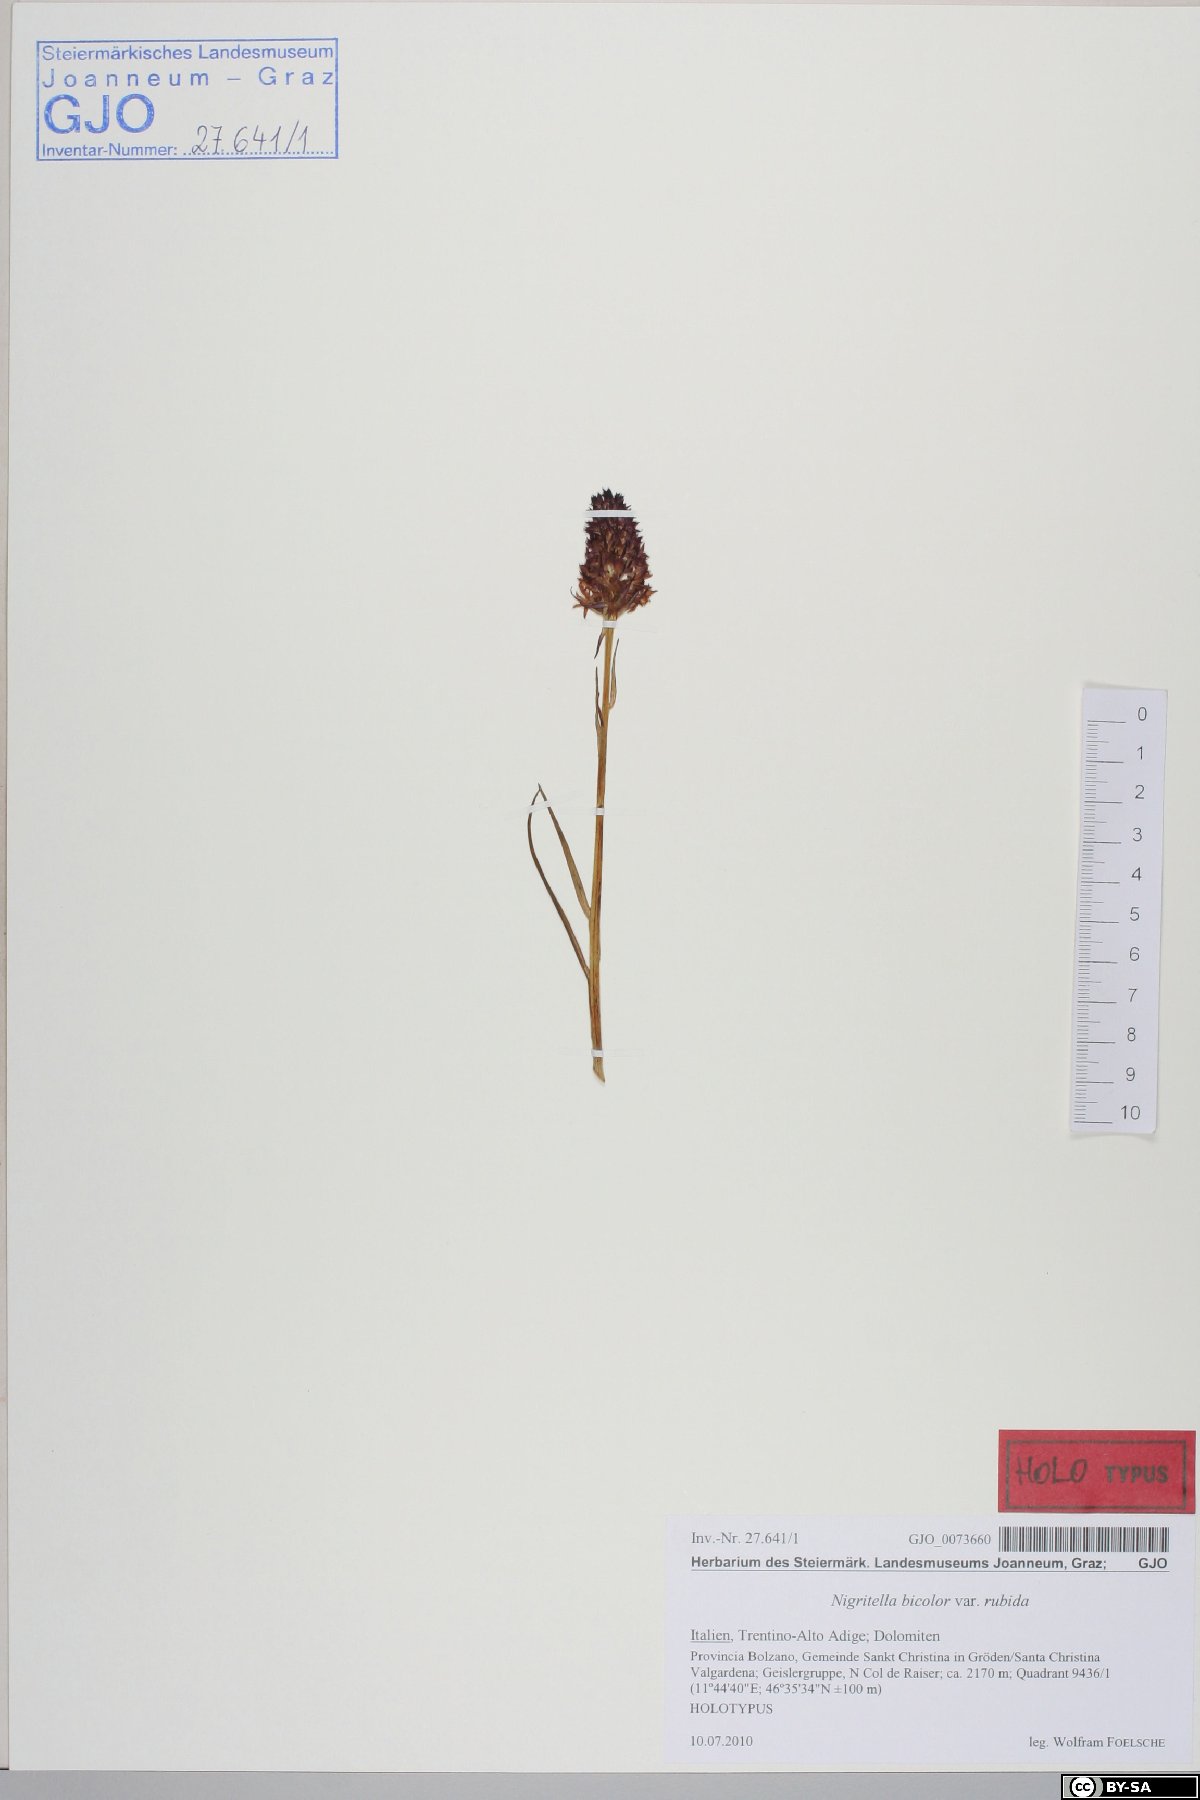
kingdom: Plantae
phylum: Tracheophyta
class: Liliopsida
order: Asparagales
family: Orchidaceae
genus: Gymnadenia
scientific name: Gymnadenia bicolor
